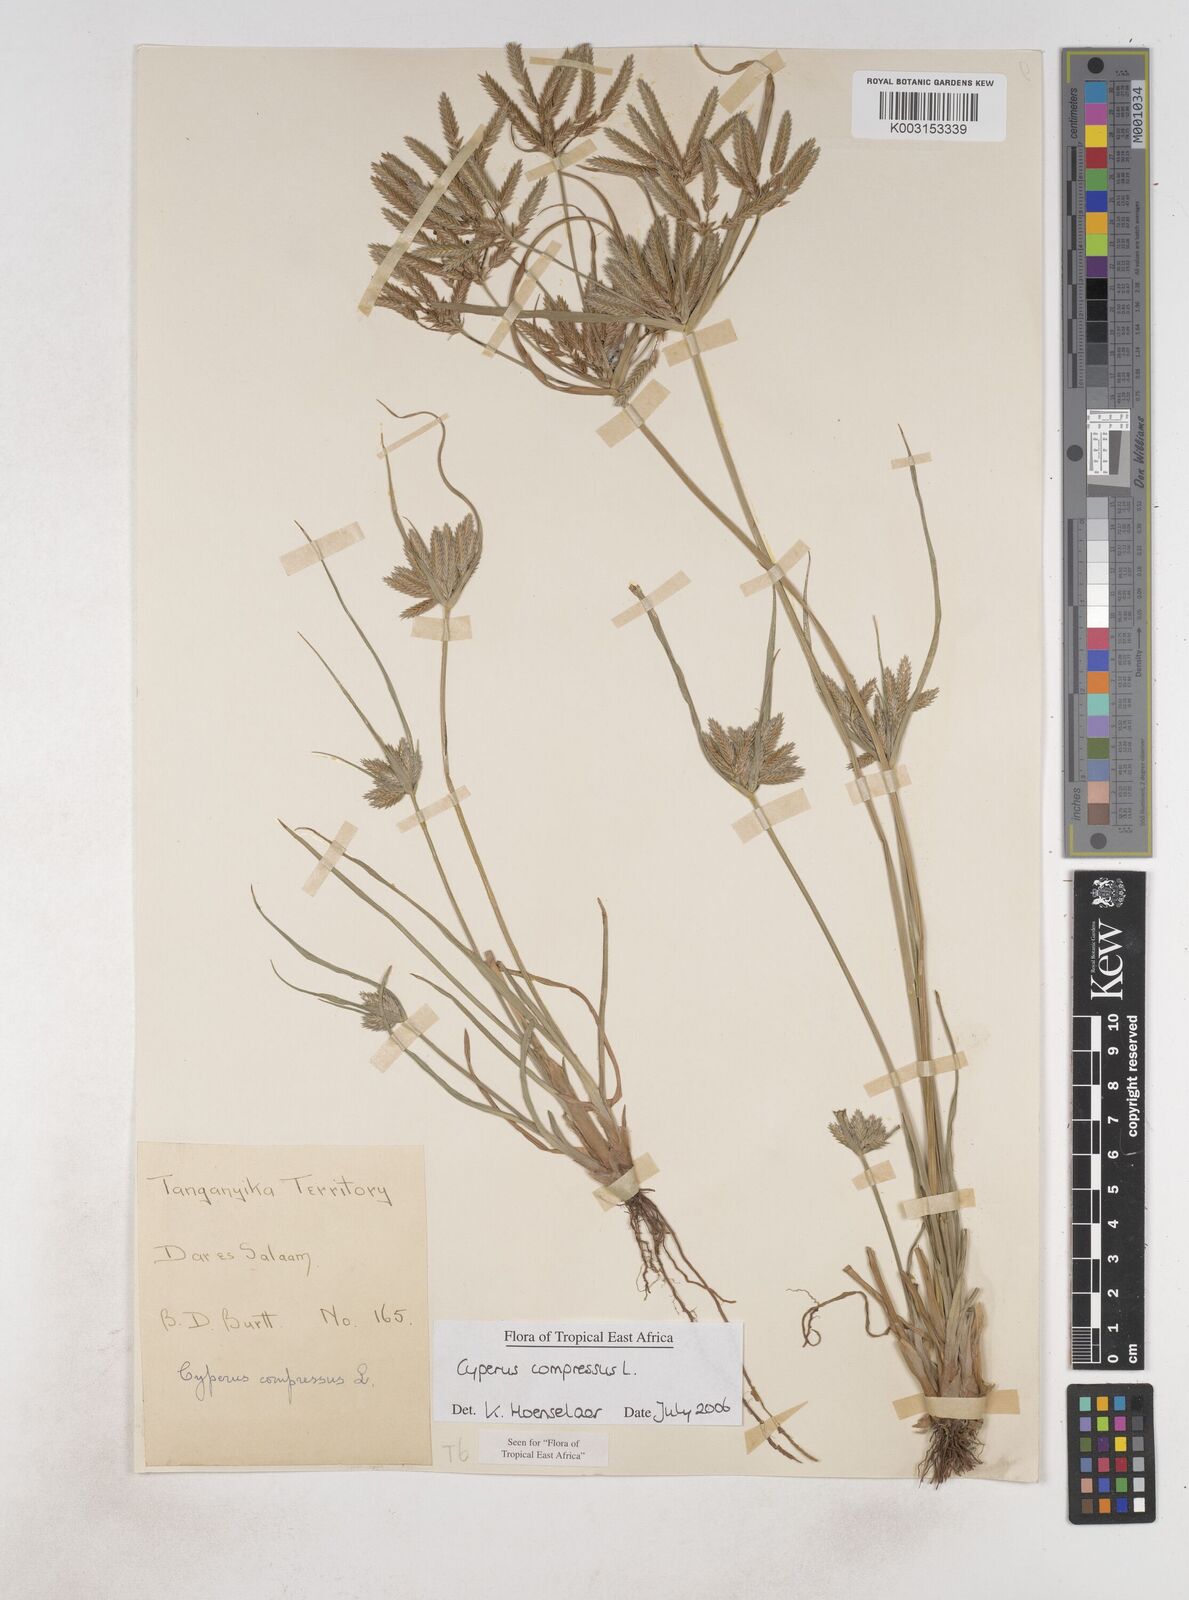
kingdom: Plantae
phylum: Tracheophyta
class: Liliopsida
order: Poales
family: Cyperaceae
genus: Cyperus
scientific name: Cyperus compressus
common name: Poorland flatsedge
